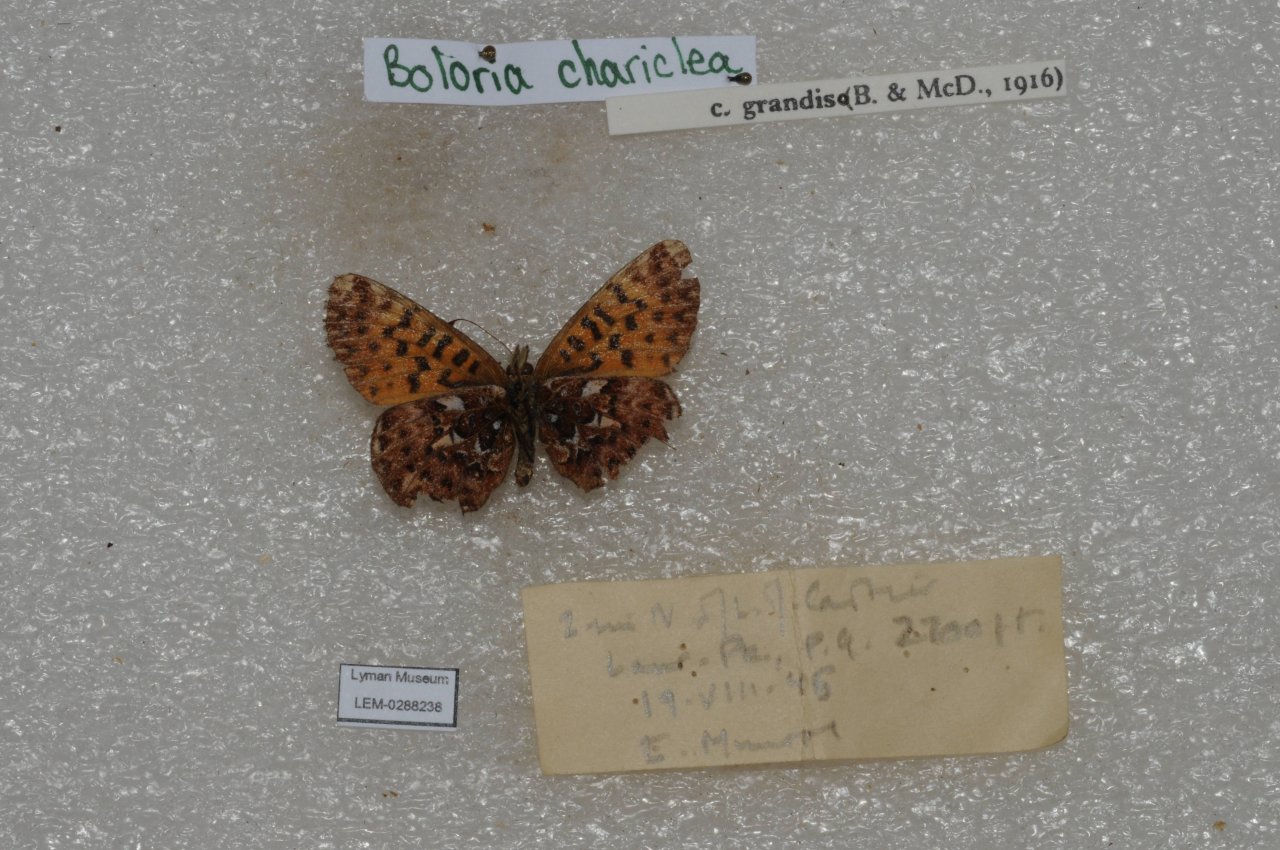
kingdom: Animalia
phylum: Arthropoda
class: Insecta
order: Lepidoptera
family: Nymphalidae
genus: Boloria
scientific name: Boloria chariclea
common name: Arctic Fritillary
